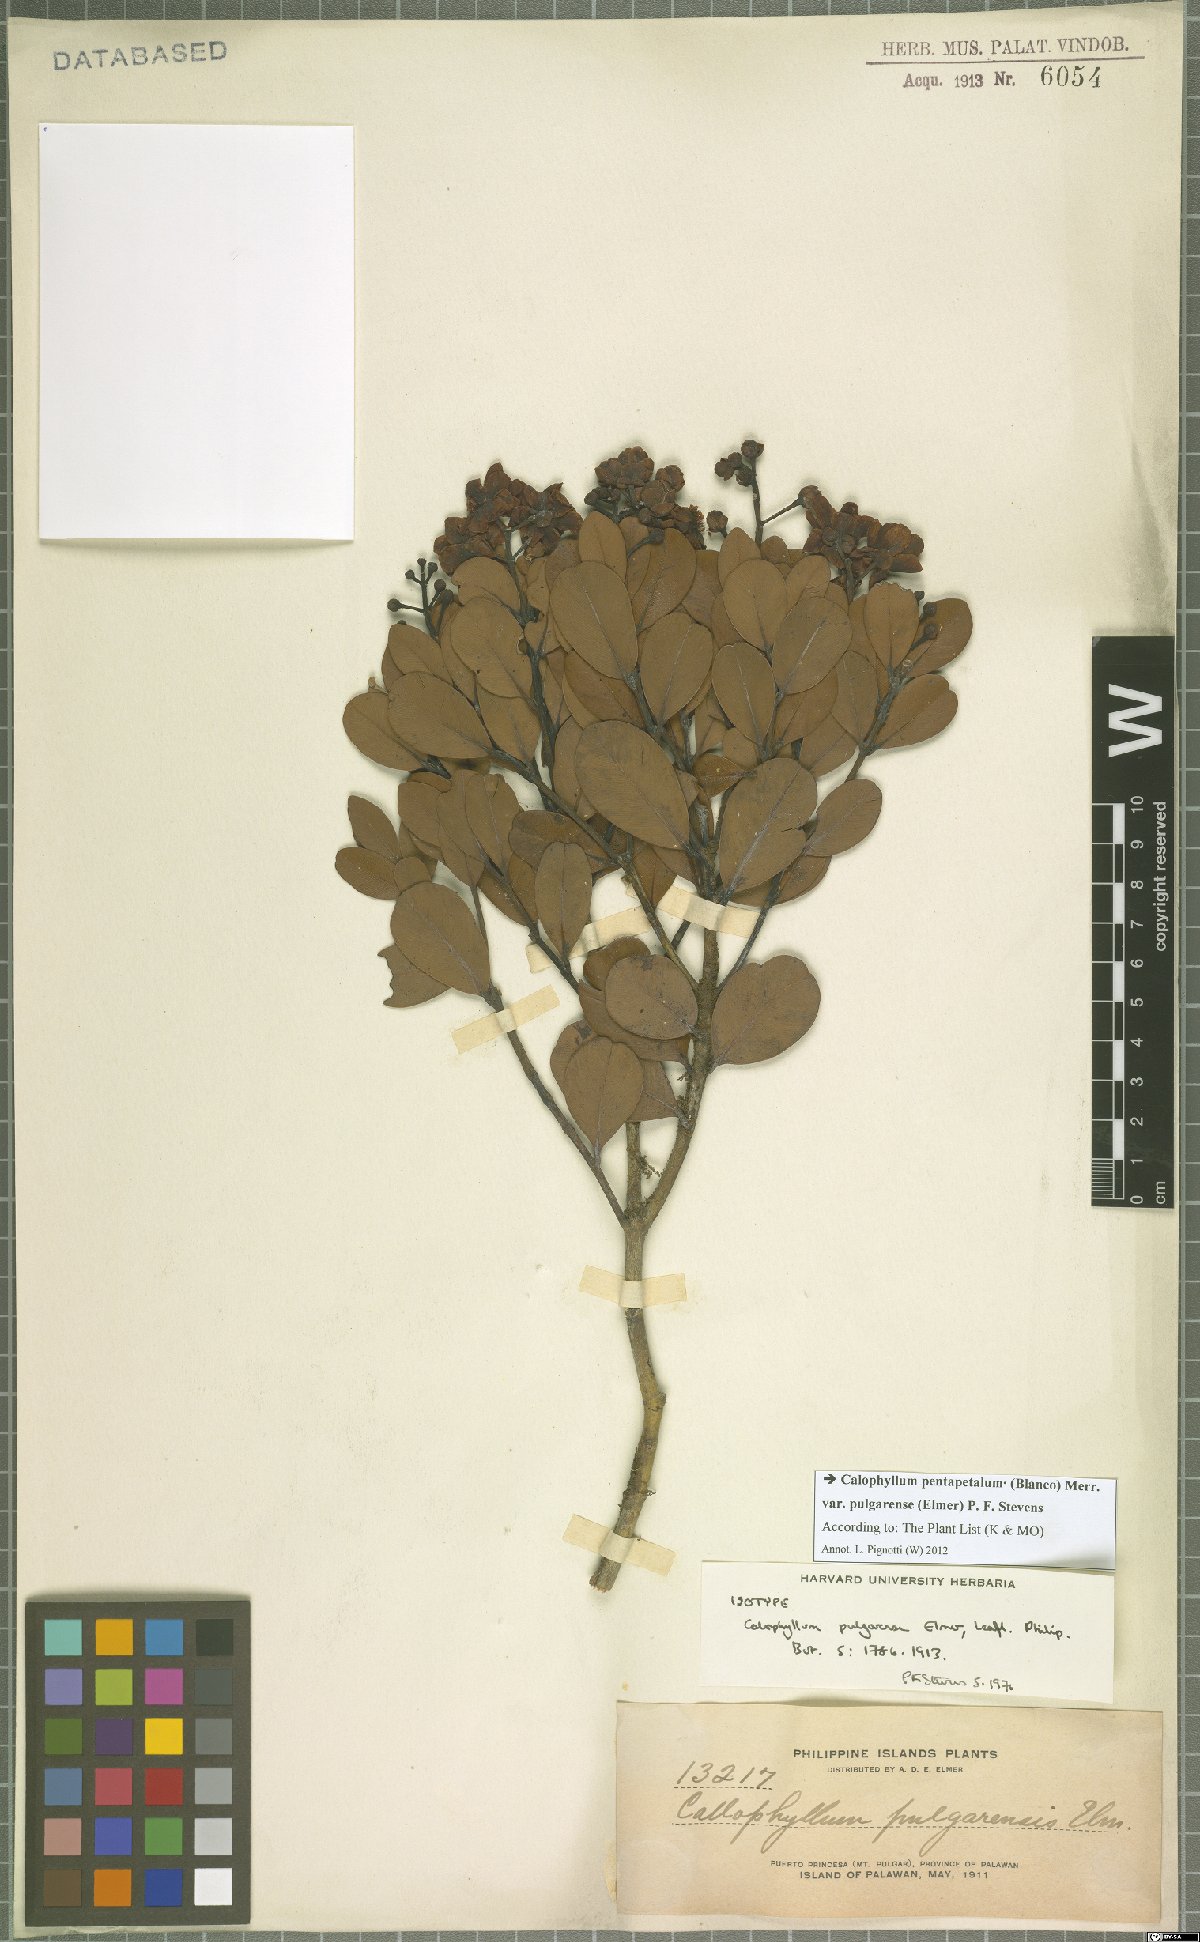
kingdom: Plantae
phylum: Tracheophyta
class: Magnoliopsida
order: Malpighiales
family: Calophyllaceae
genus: Calophyllum
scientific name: Calophyllum pentapetalum
